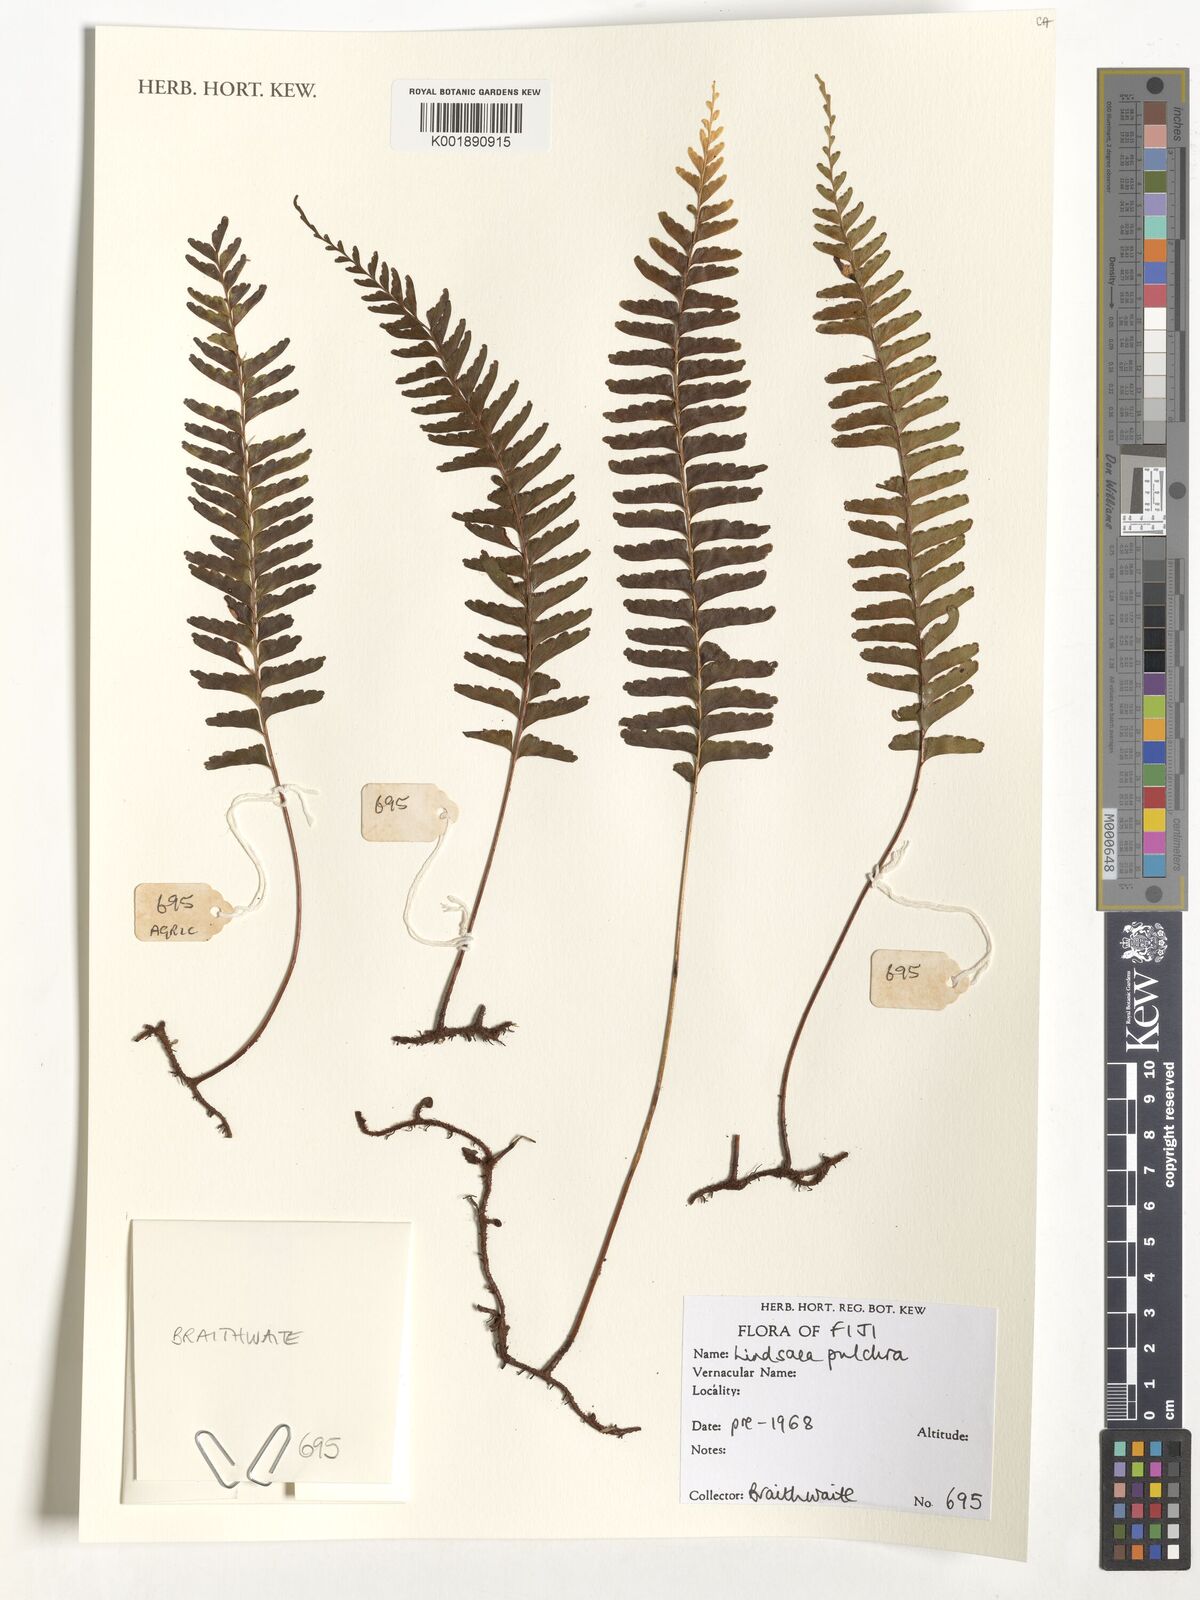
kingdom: Plantae
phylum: Tracheophyta
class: Polypodiopsida
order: Polypodiales
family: Lindsaeaceae
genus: Lindsaea
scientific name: Lindsaea pulchra
